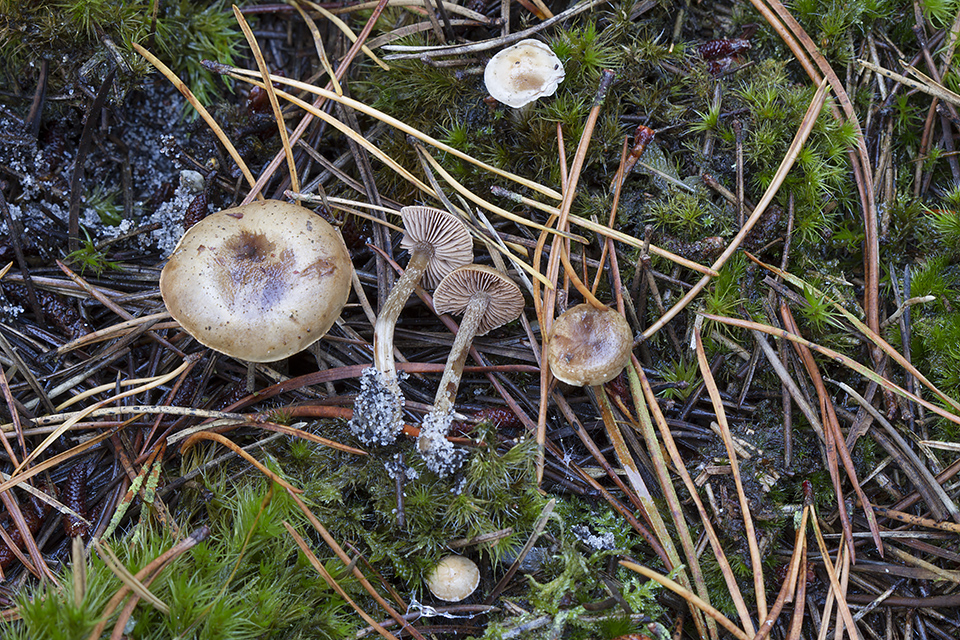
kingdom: Fungi
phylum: Basidiomycota
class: Agaricomycetes
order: Agaricales
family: Hymenogastraceae
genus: Hebeloma
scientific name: Hebeloma cylindrosporum
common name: fyrre-tåreblad
